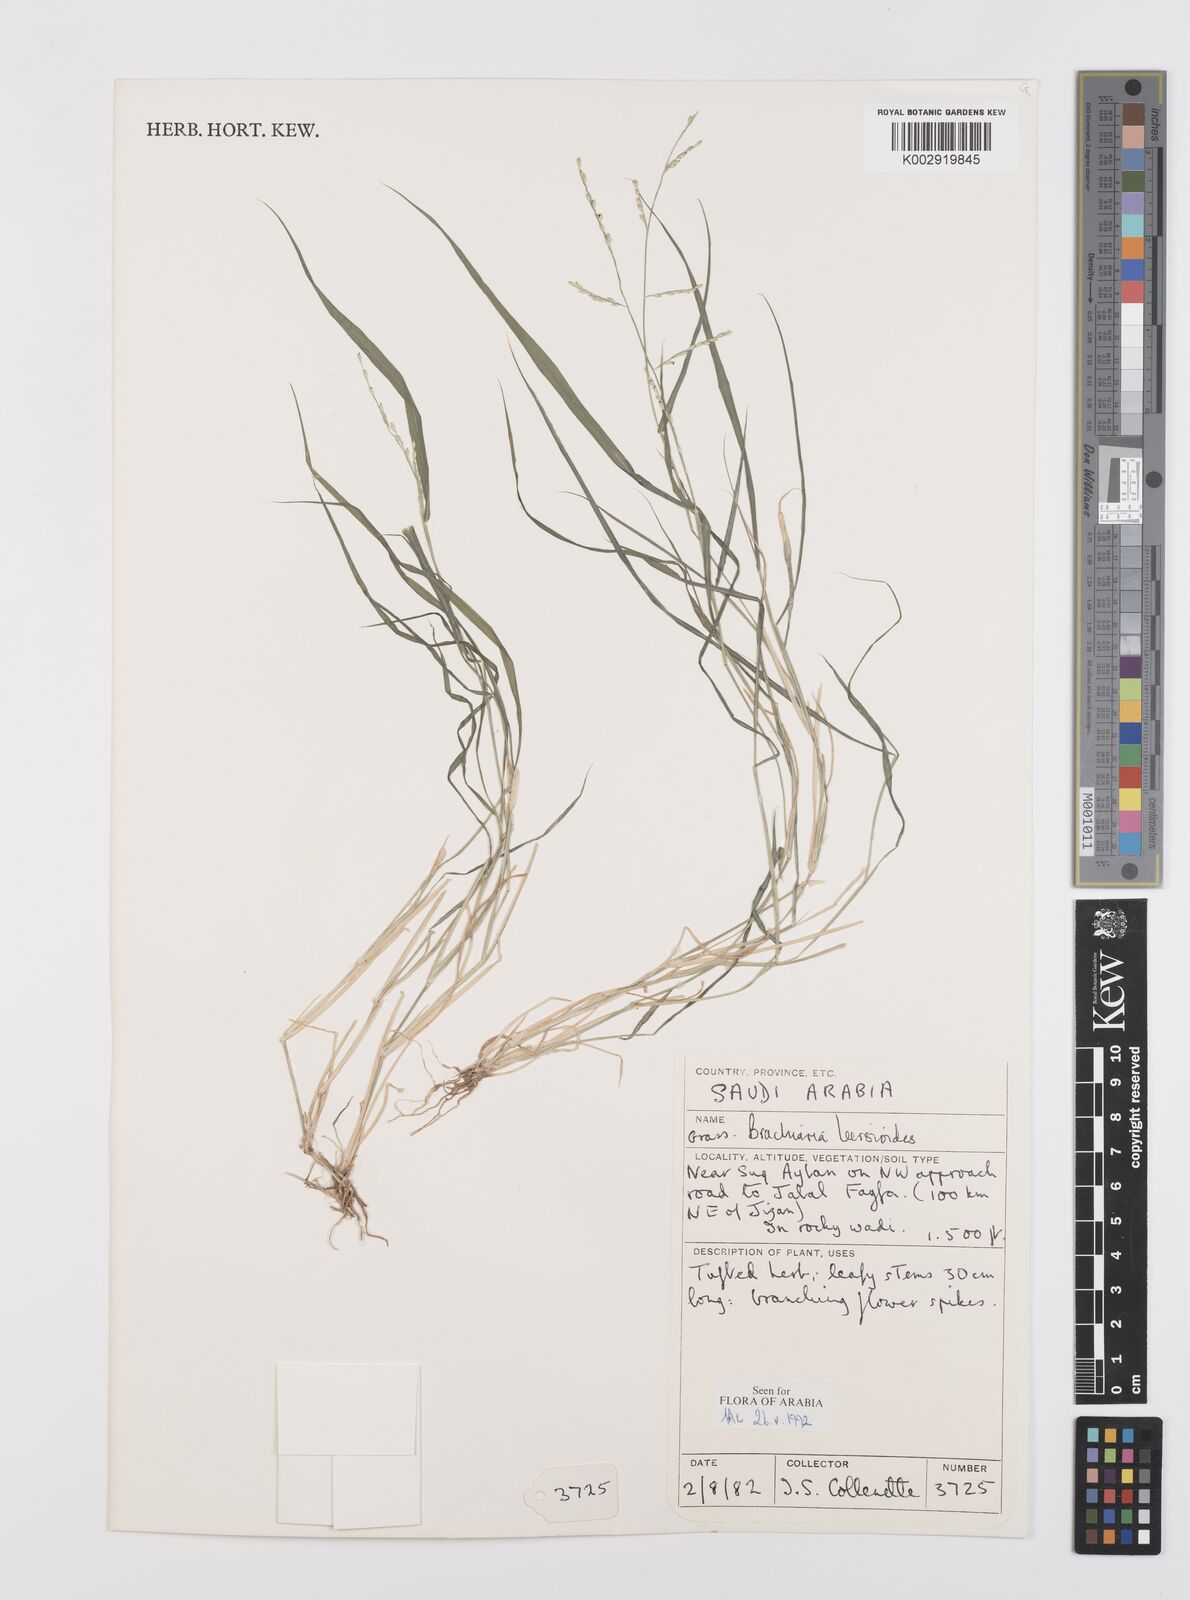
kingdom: Plantae
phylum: Tracheophyta
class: Liliopsida
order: Poales
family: Poaceae
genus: Urochloa
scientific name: Urochloa leersioides
